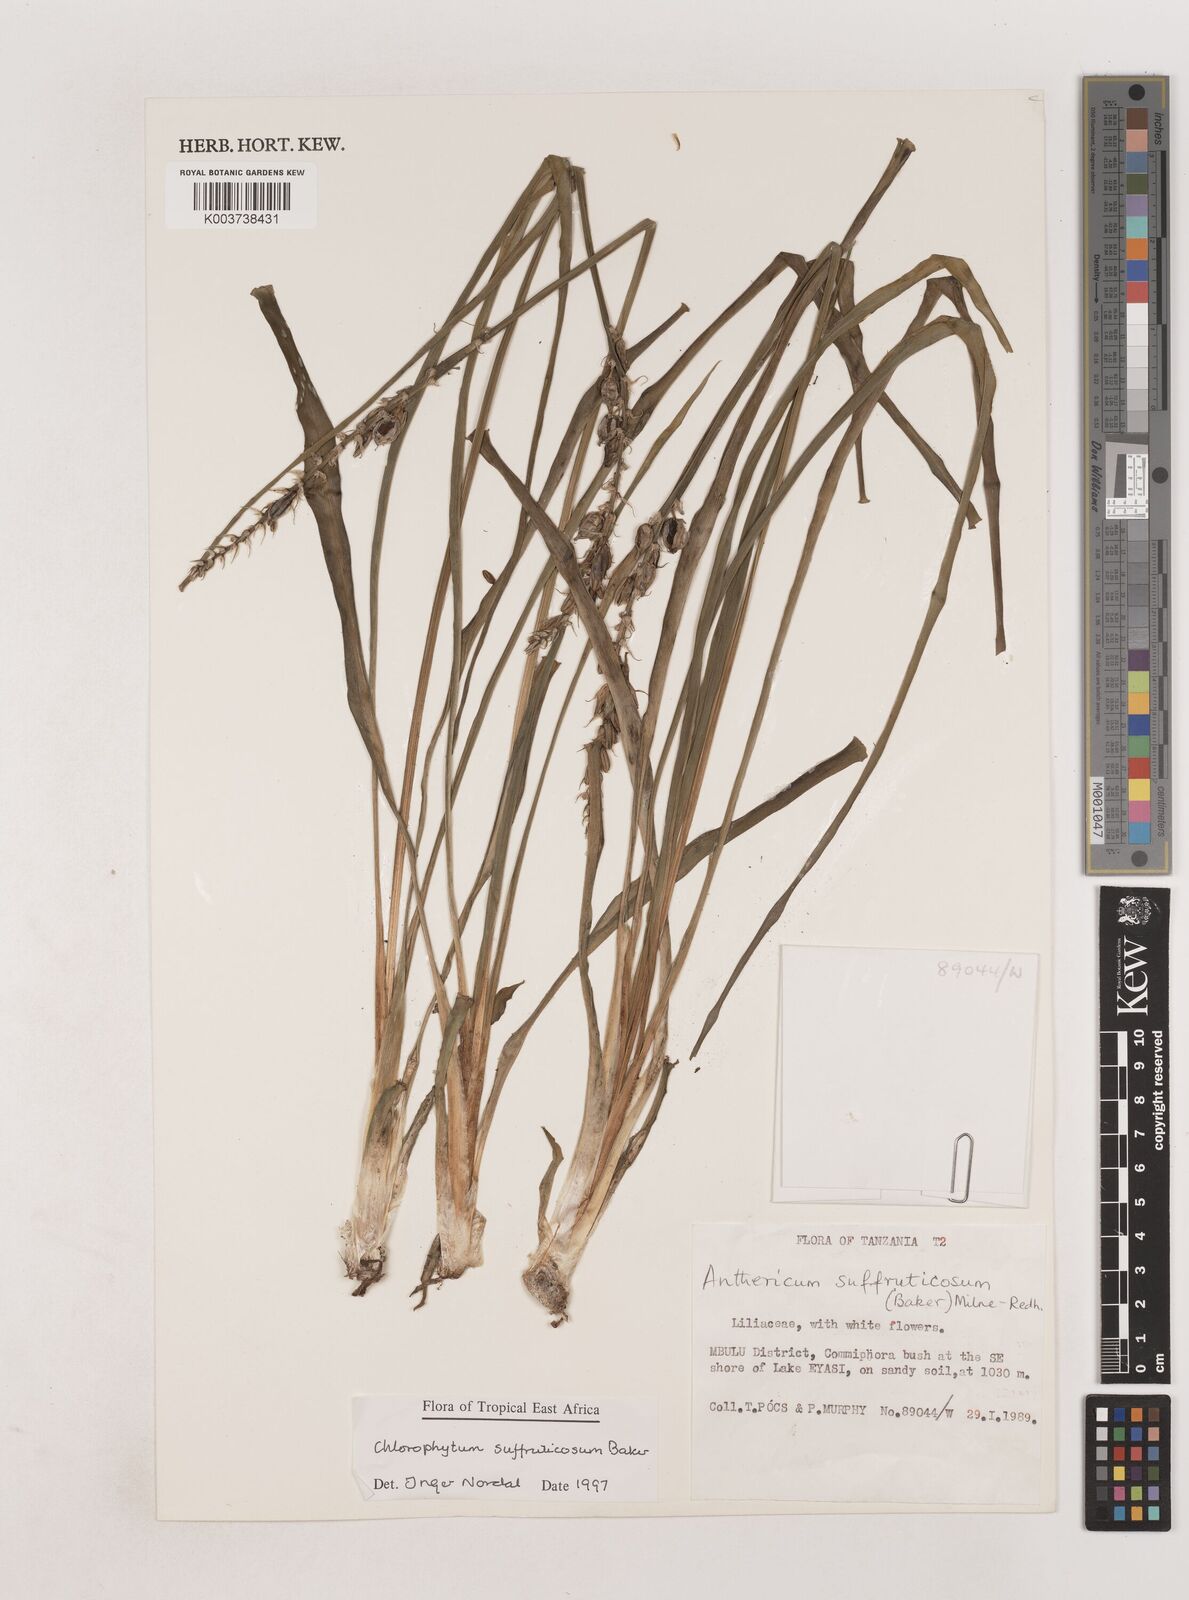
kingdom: Plantae
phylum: Tracheophyta
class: Liliopsida
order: Asparagales
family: Asparagaceae
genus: Chlorophytum
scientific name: Chlorophytum suffruticosum
